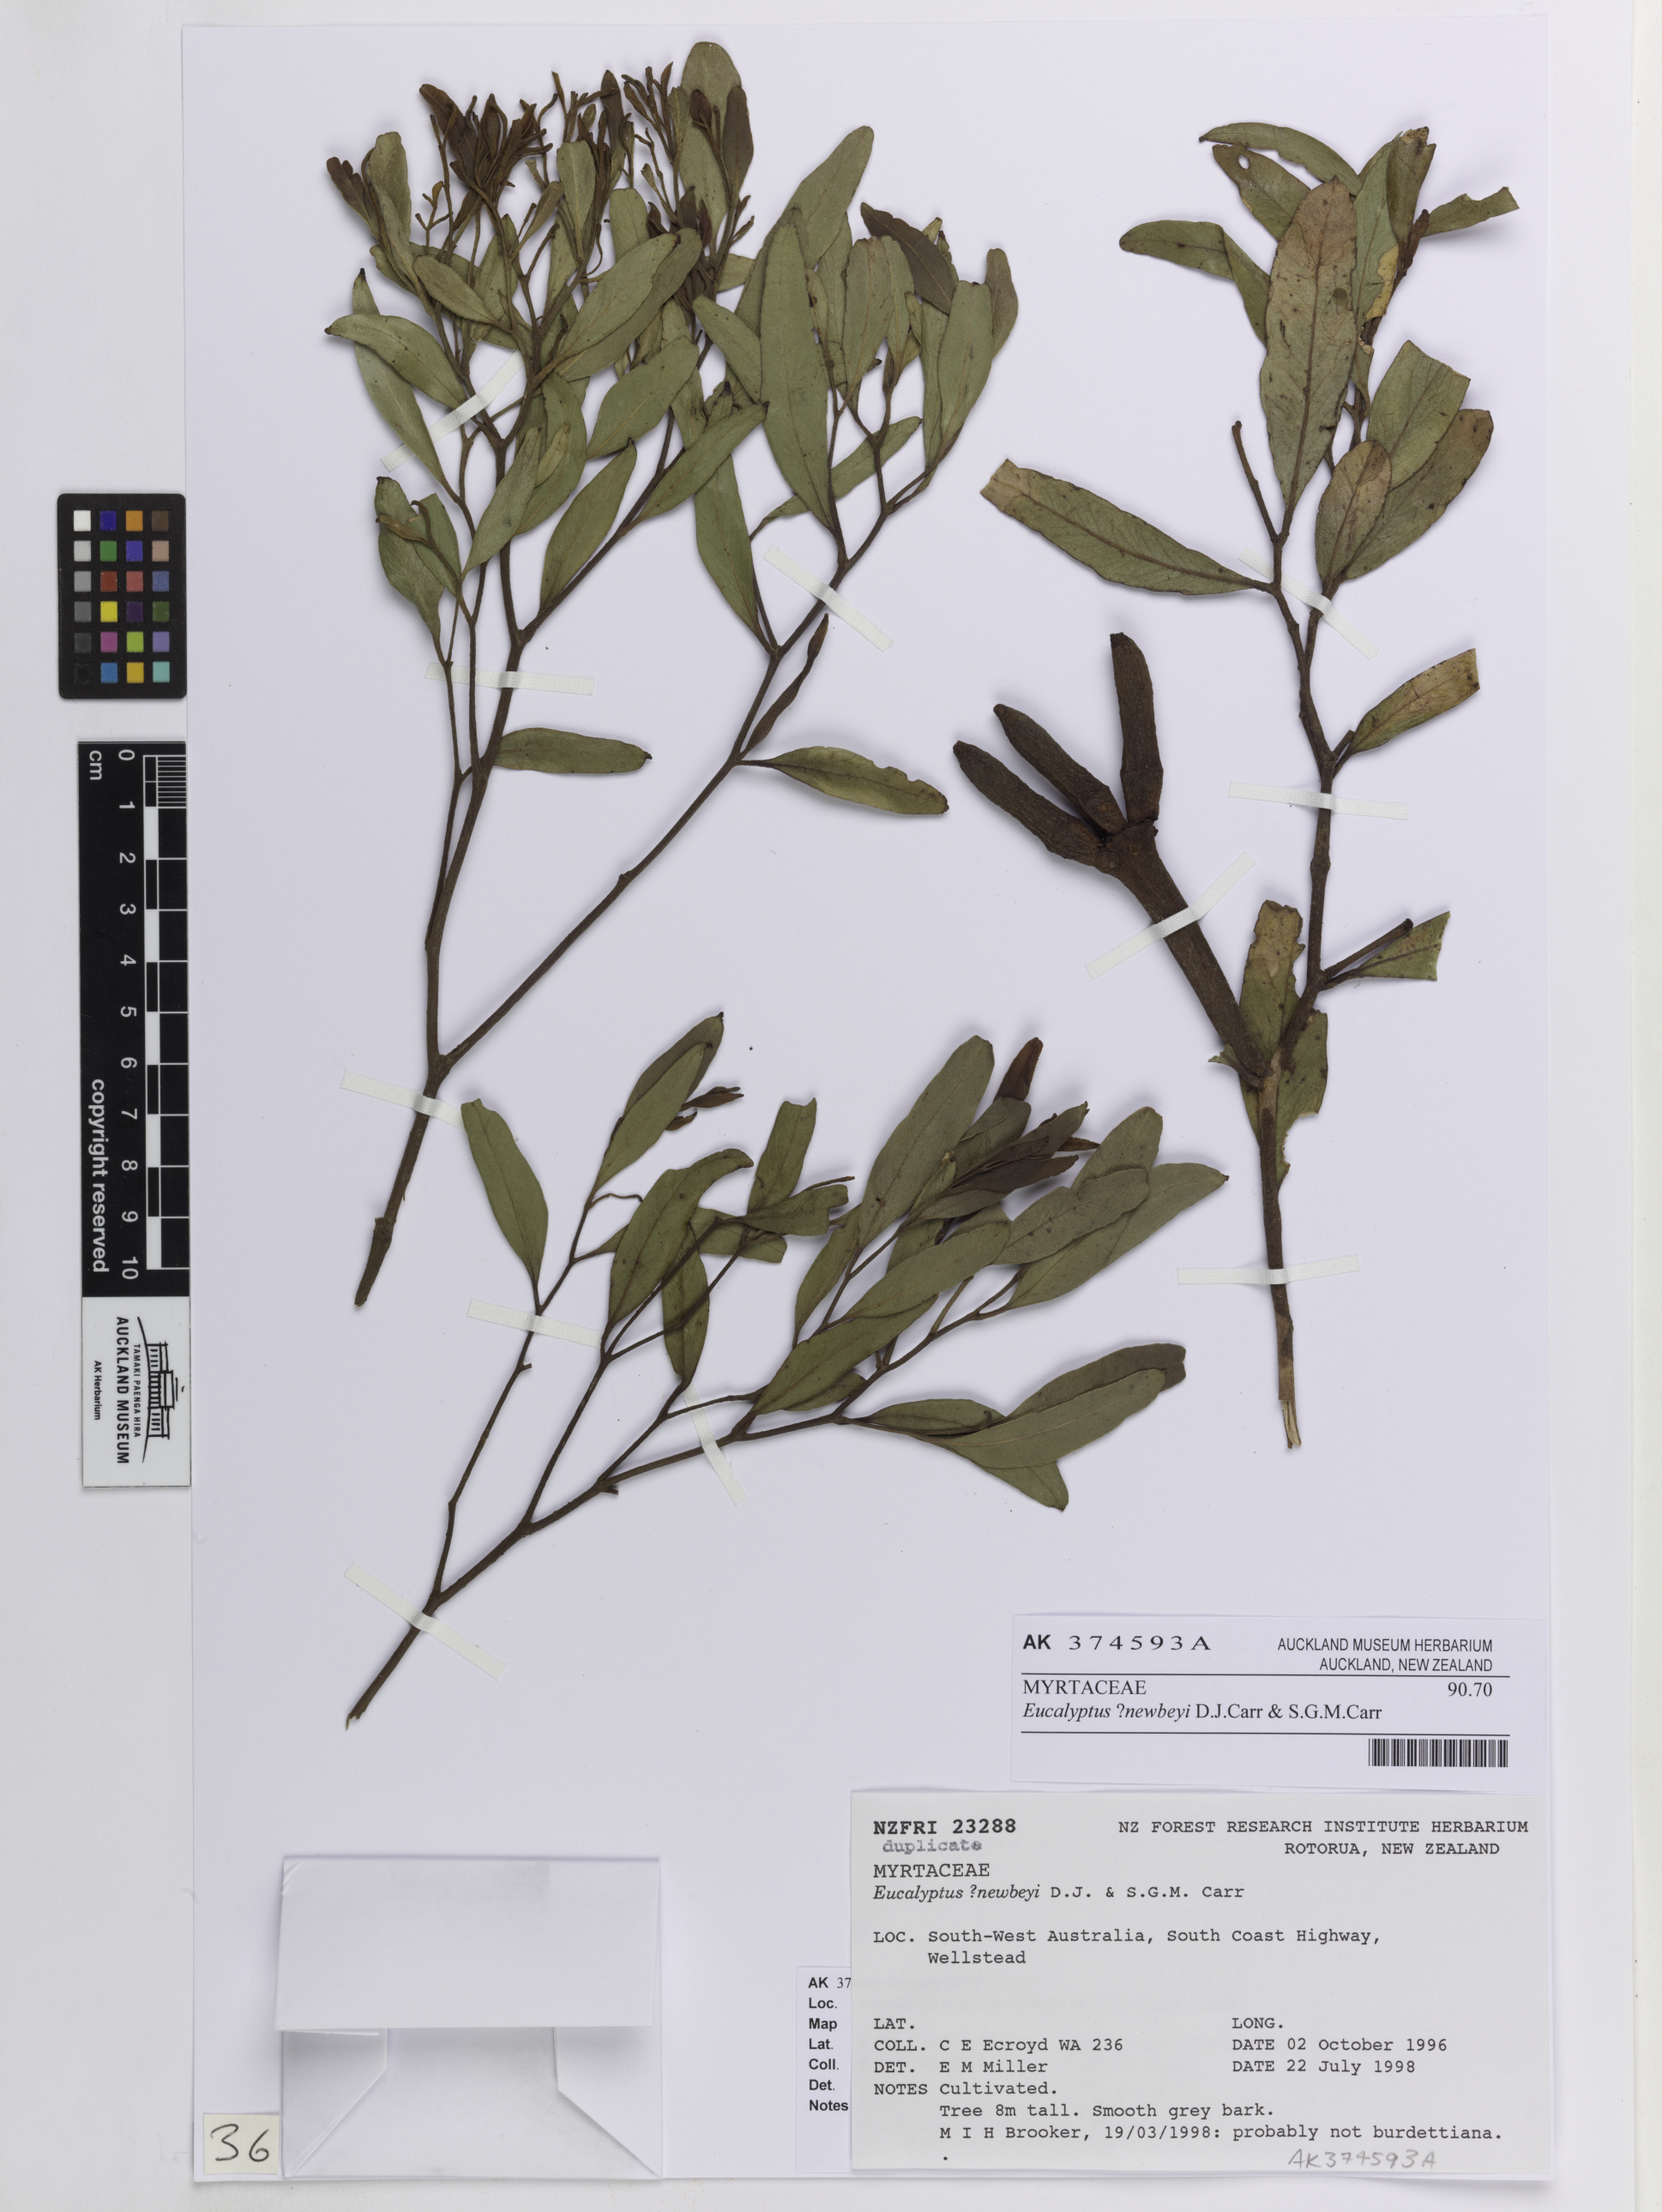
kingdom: Plantae
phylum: Tracheophyta
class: Magnoliopsida
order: Myrtales
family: Myrtaceae
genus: Eucalyptus
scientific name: Eucalyptus newbeyi
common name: Beaufort inlet mallet
